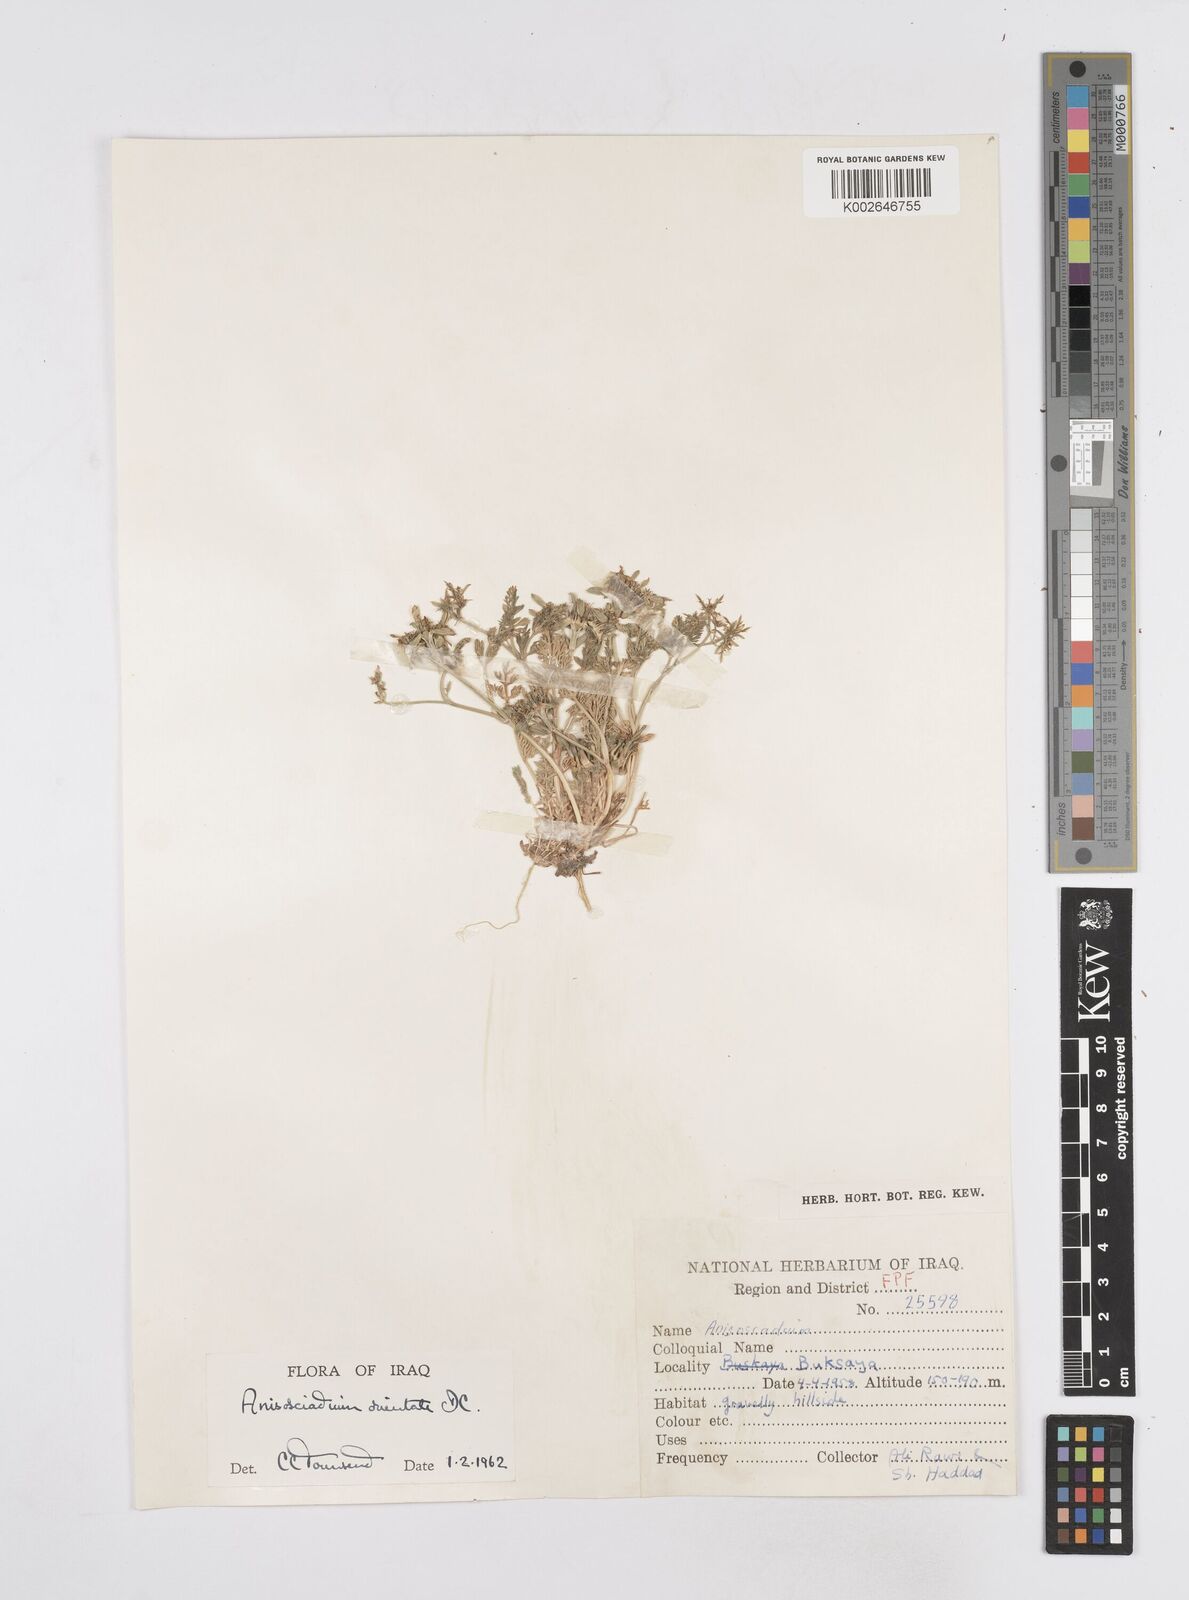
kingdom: Plantae
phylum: Tracheophyta
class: Magnoliopsida
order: Apiales
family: Apiaceae
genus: Anisosciadium
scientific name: Anisosciadium orientale
